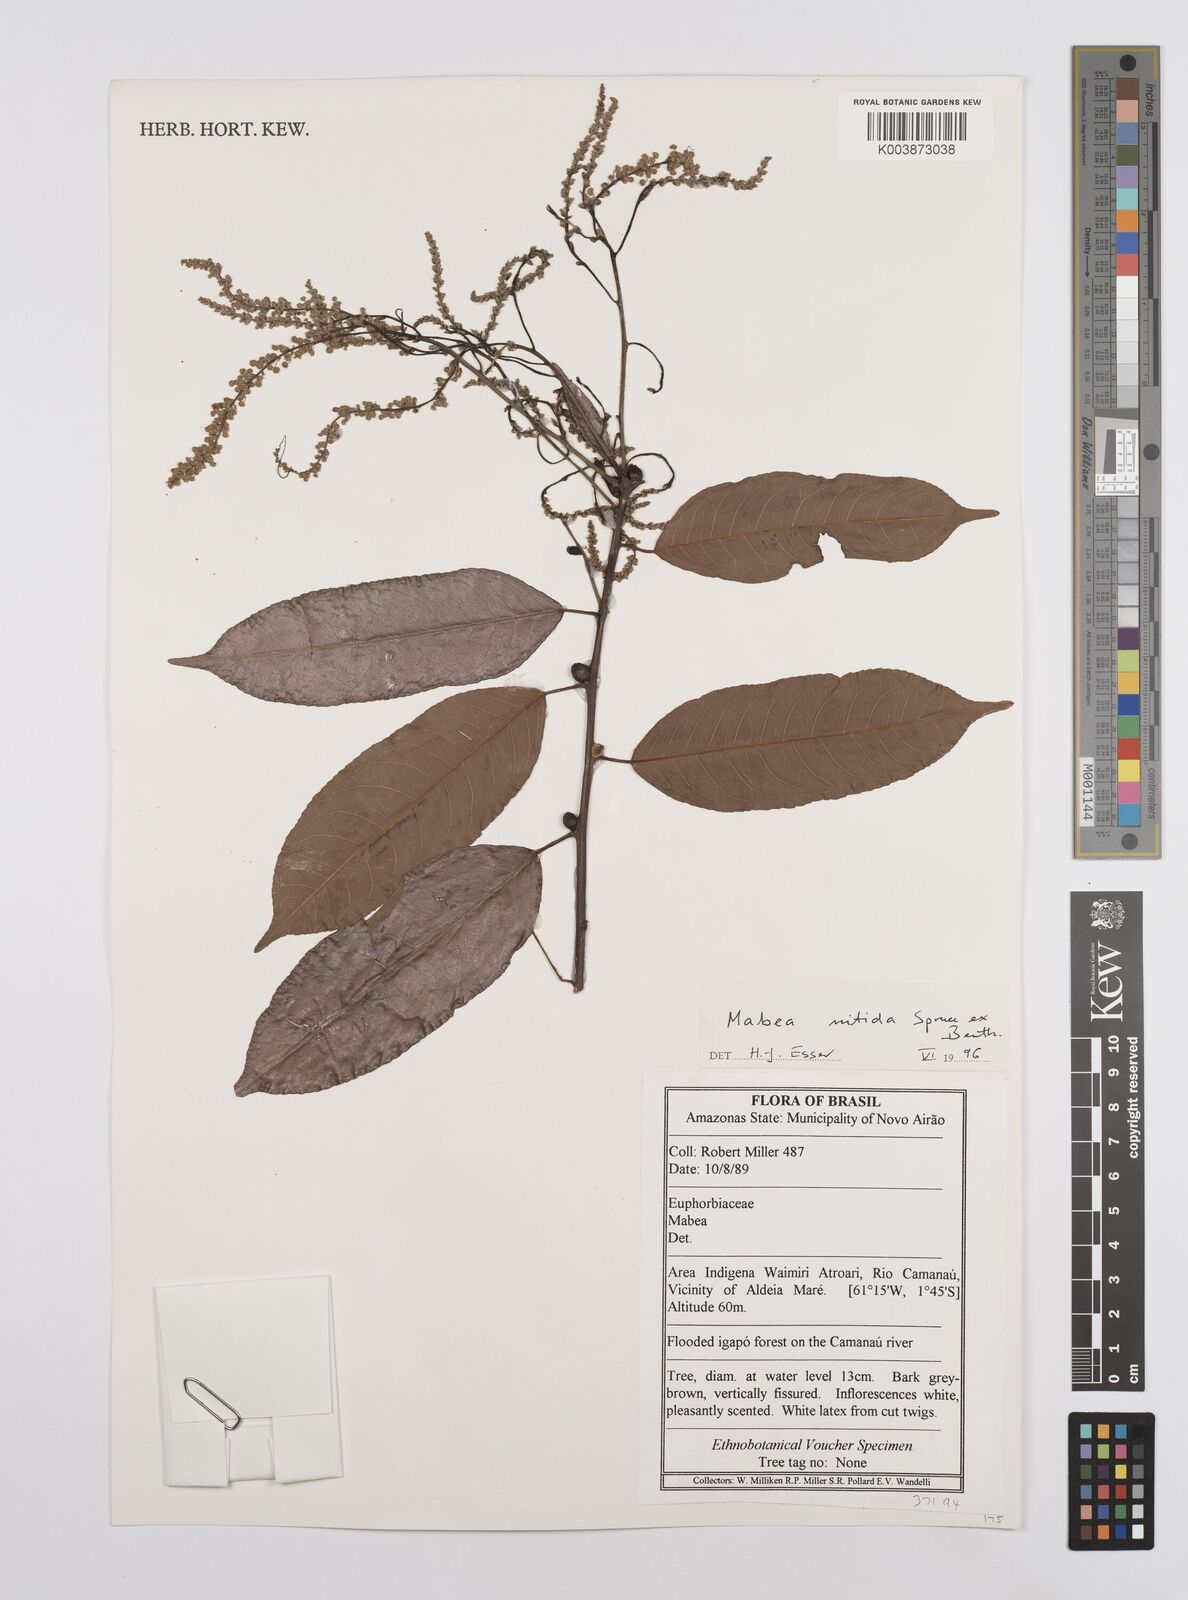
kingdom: Plantae
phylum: Tracheophyta
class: Magnoliopsida
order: Malpighiales
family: Euphorbiaceae
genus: Mabea
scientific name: Mabea pohliana
